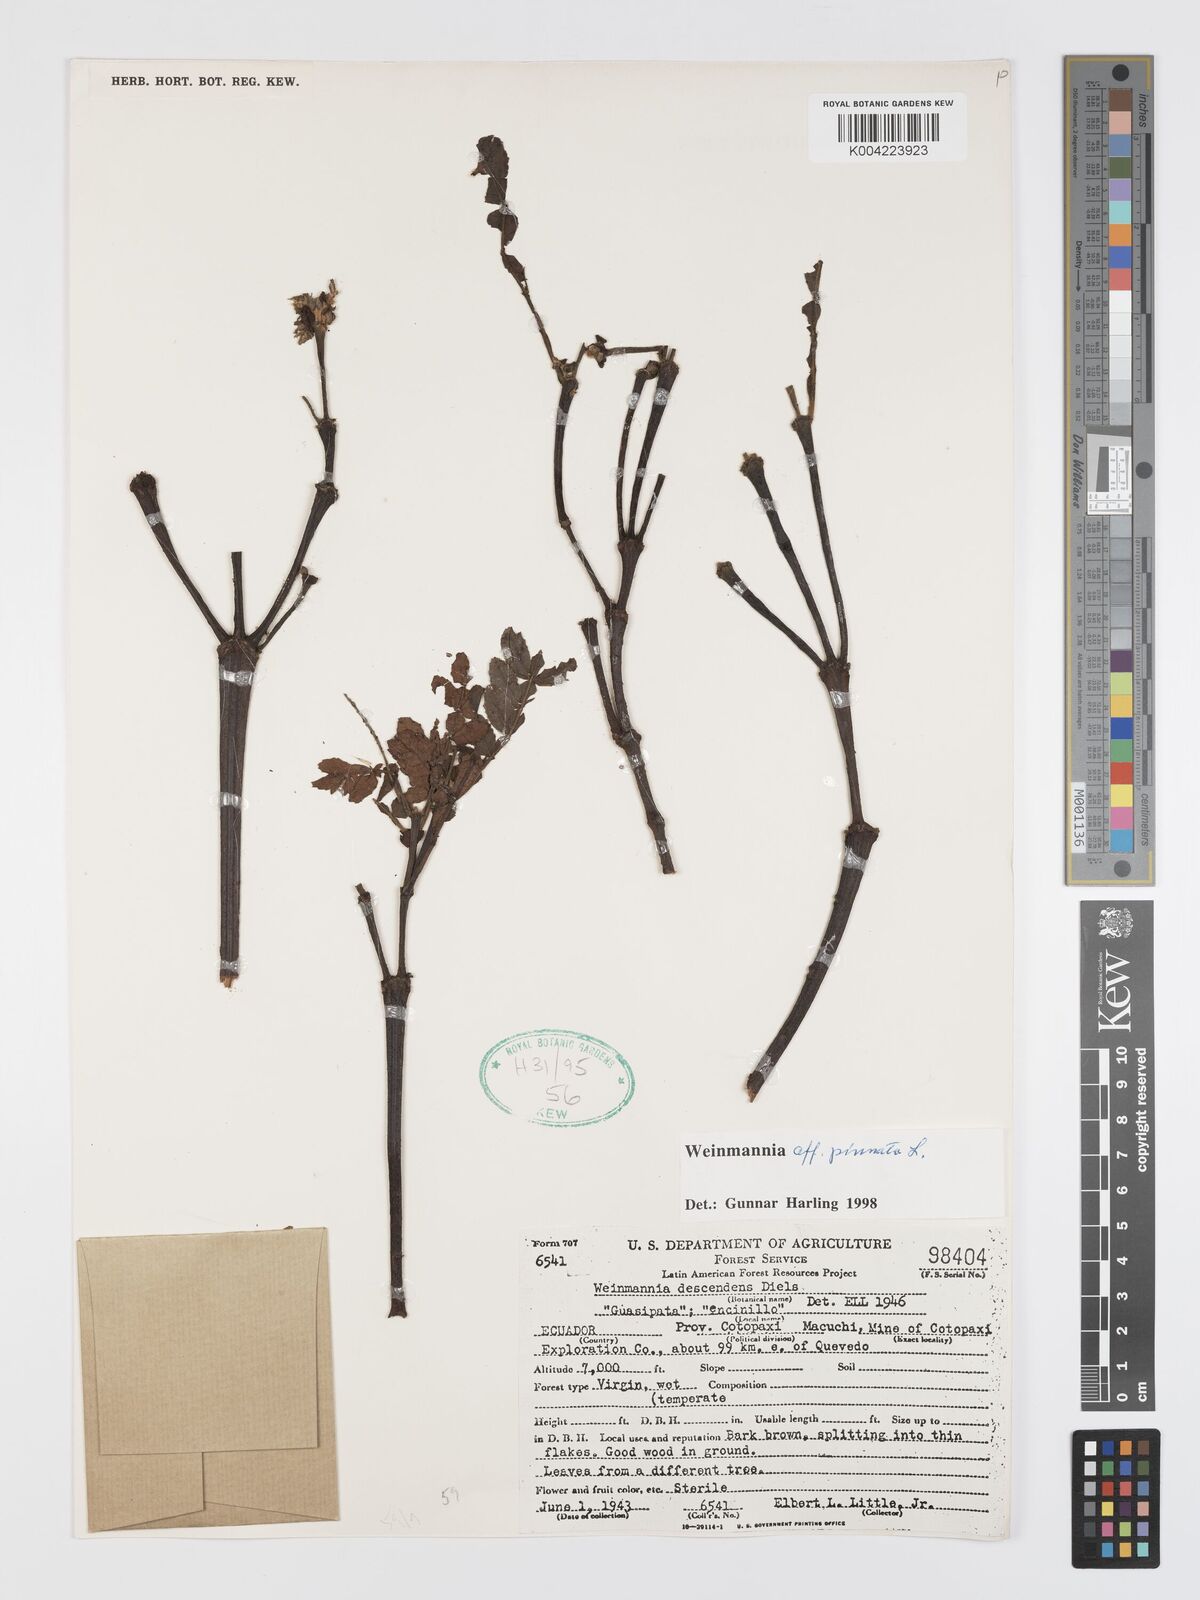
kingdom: Plantae
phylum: Tracheophyta
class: Magnoliopsida
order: Oxalidales
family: Cunoniaceae
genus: Weinmannia
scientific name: Weinmannia pinnata
